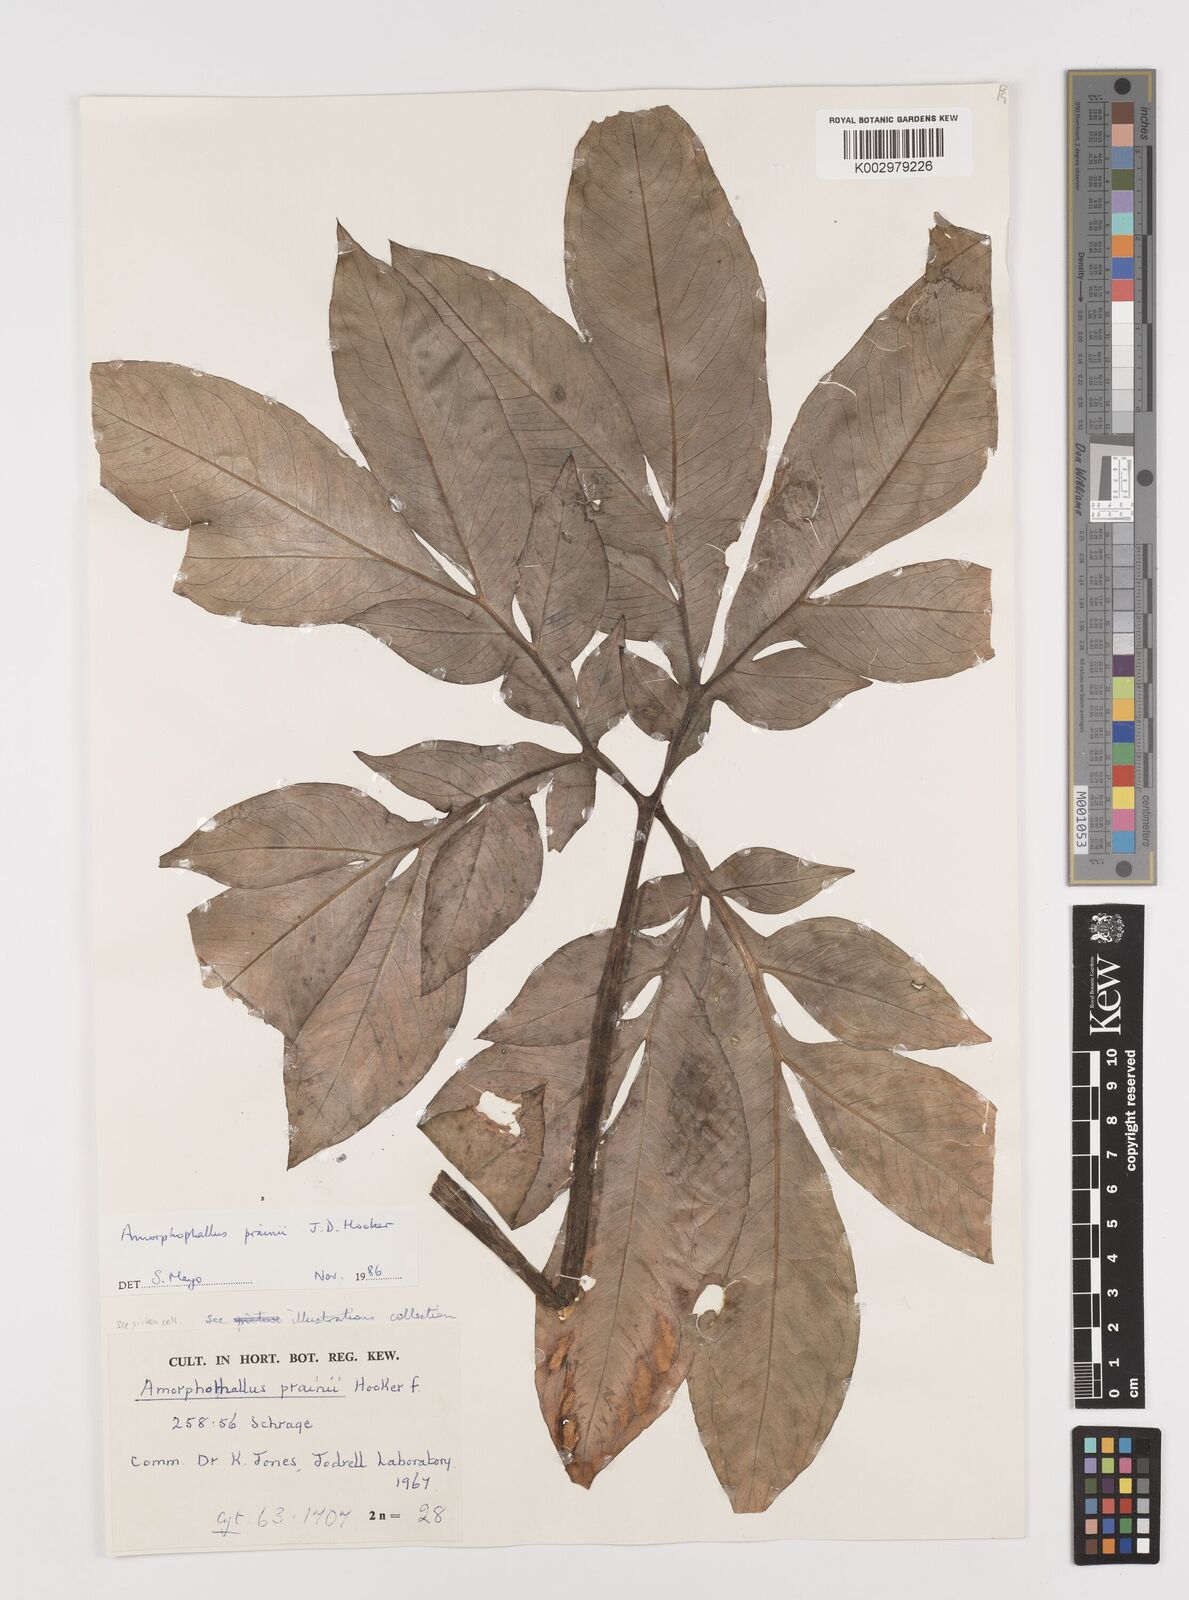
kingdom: Plantae
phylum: Tracheophyta
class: Liliopsida
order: Alismatales
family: Araceae
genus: Amorphophallus
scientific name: Amorphophallus prainii
